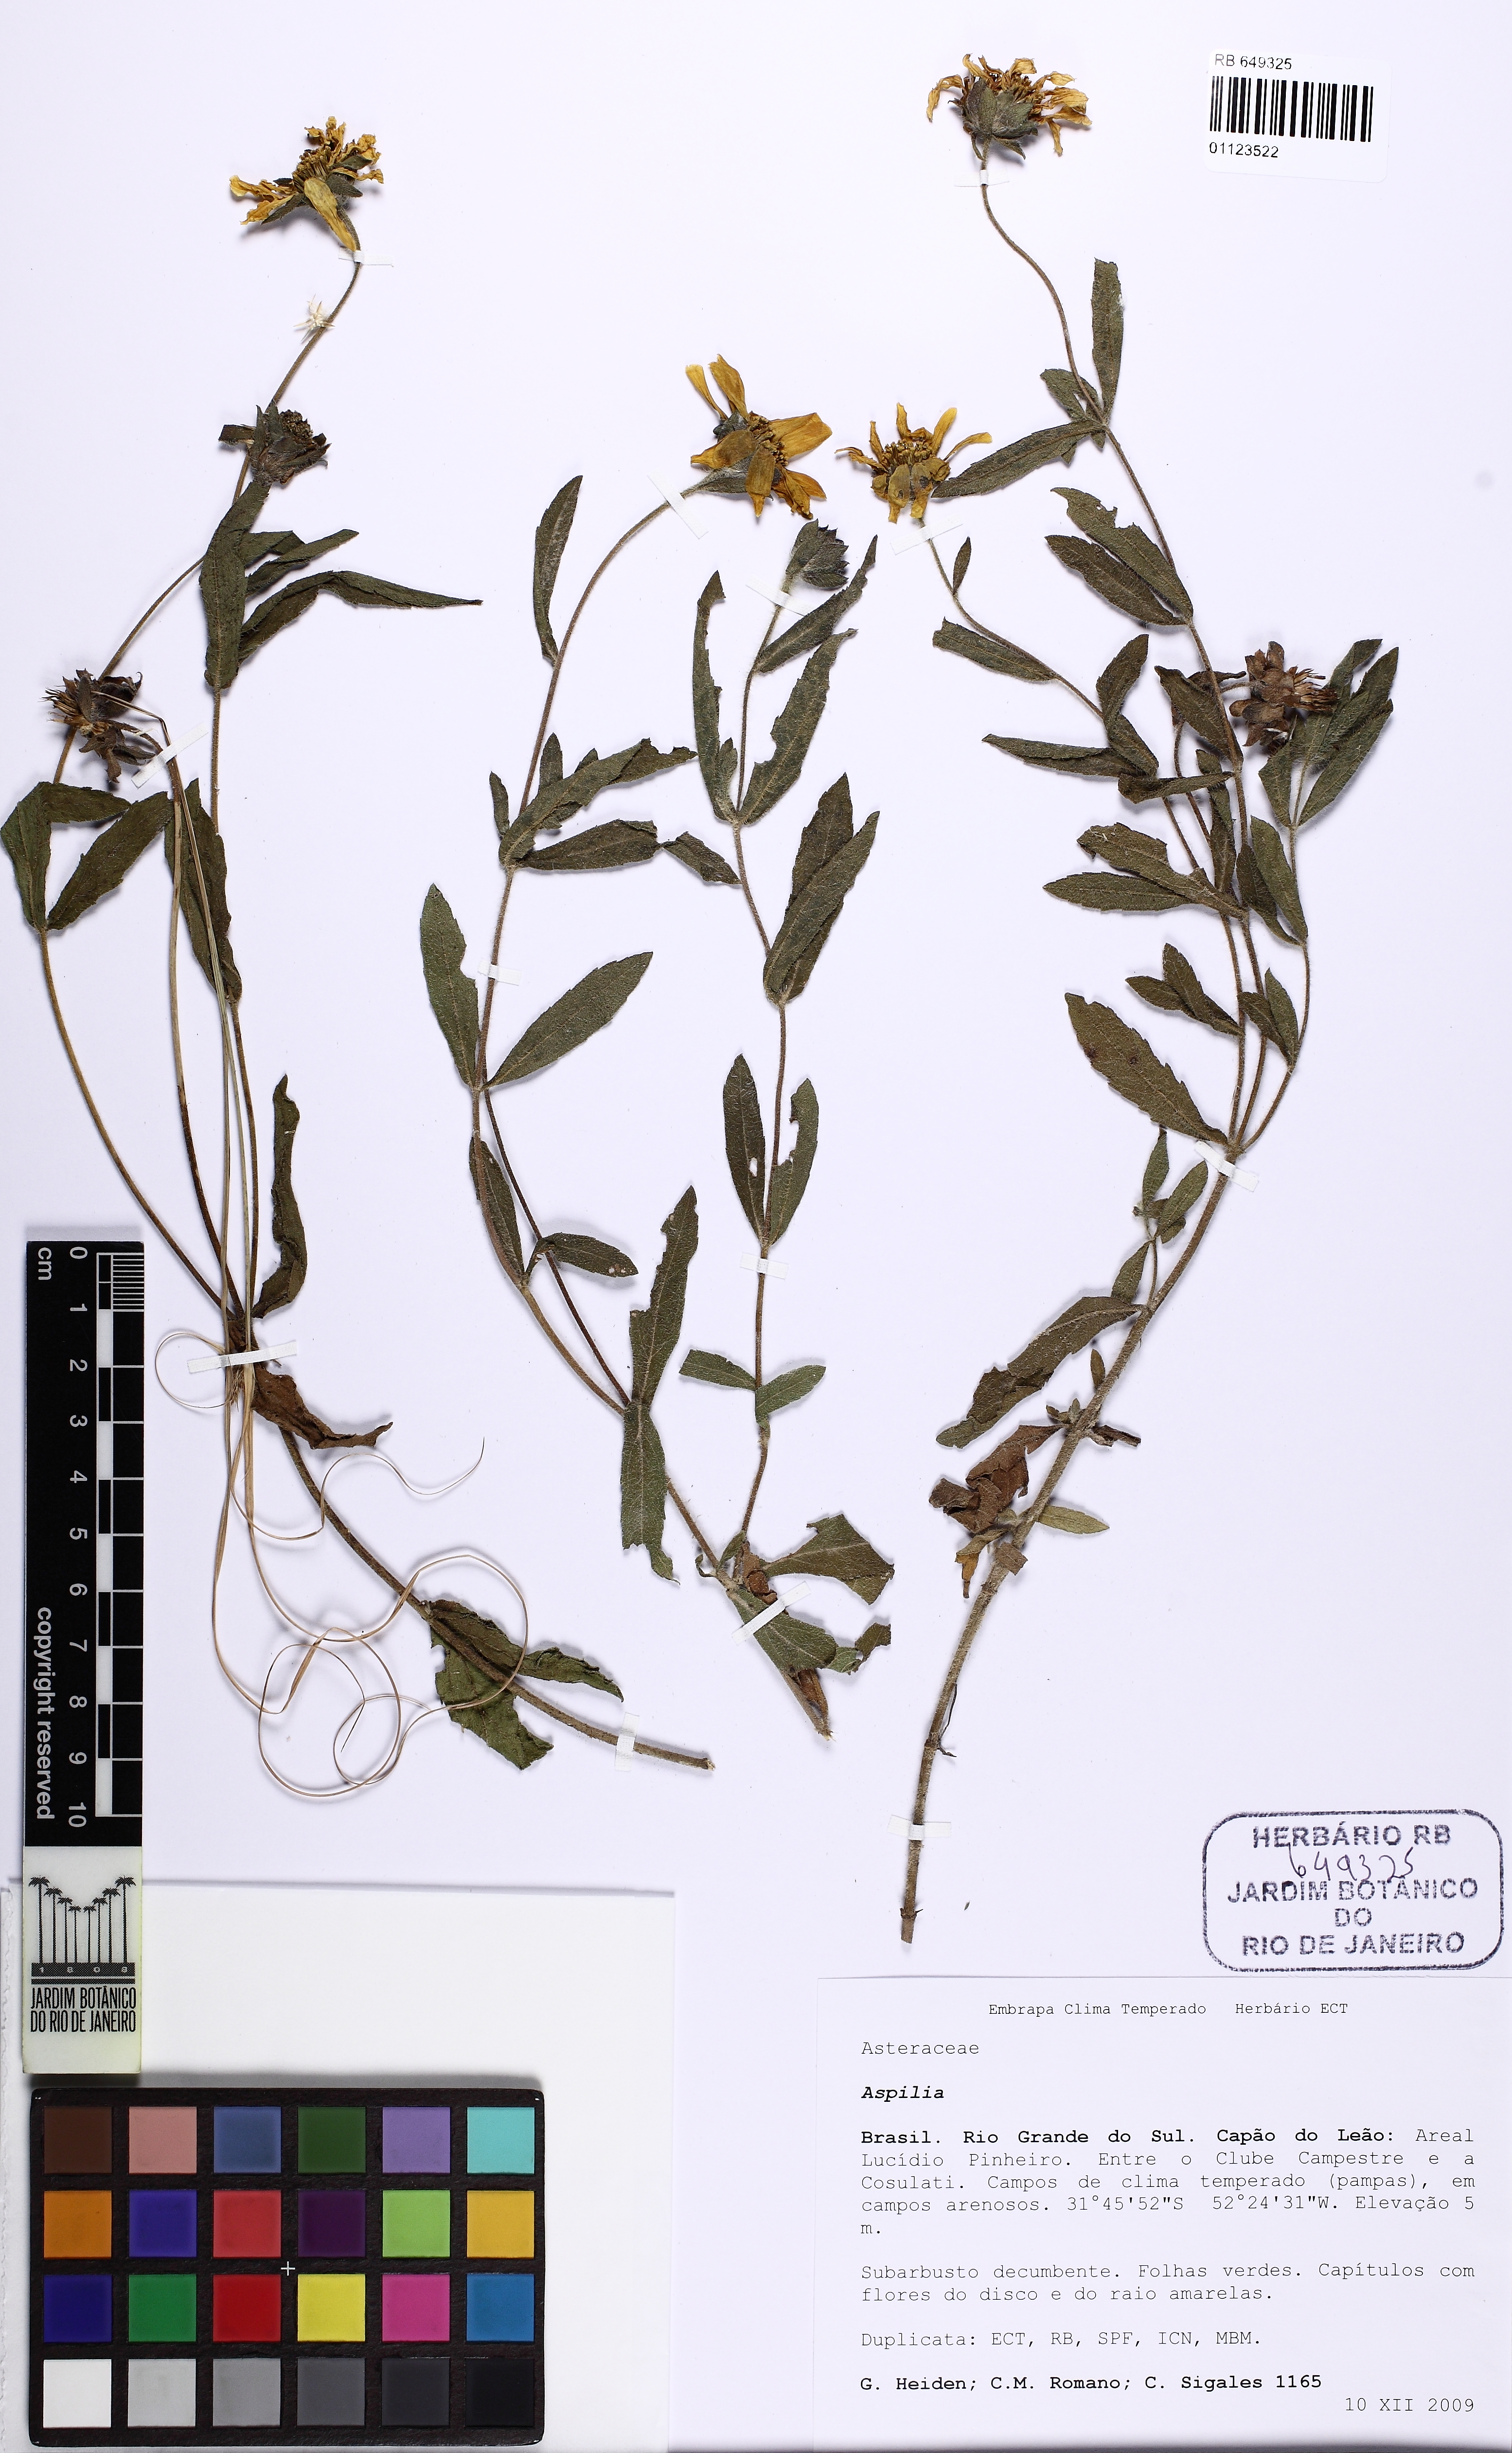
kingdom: Plantae
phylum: Tracheophyta
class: Magnoliopsida
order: Asterales
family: Asteraceae
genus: Aspilia
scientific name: Aspilia
